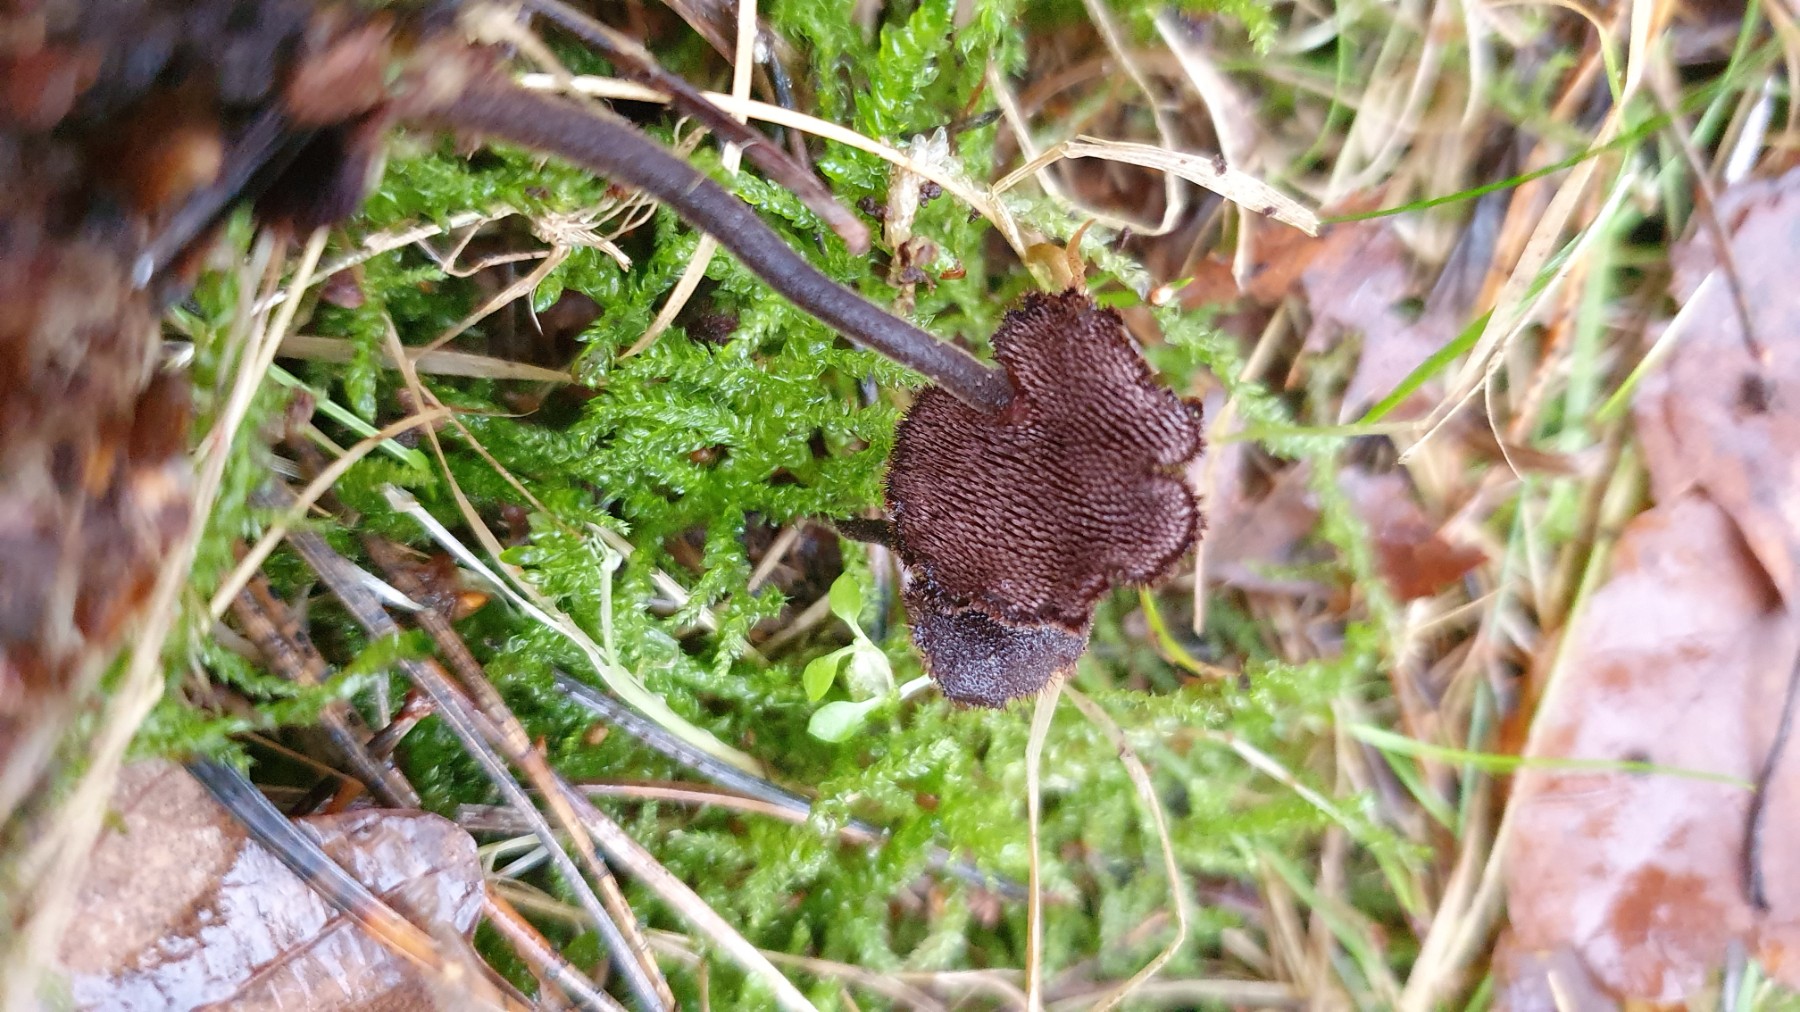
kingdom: Fungi
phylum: Basidiomycota
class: Agaricomycetes
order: Russulales
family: Auriscalpiaceae
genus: Auriscalpium
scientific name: Auriscalpium vulgare
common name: koglepigsvamp
